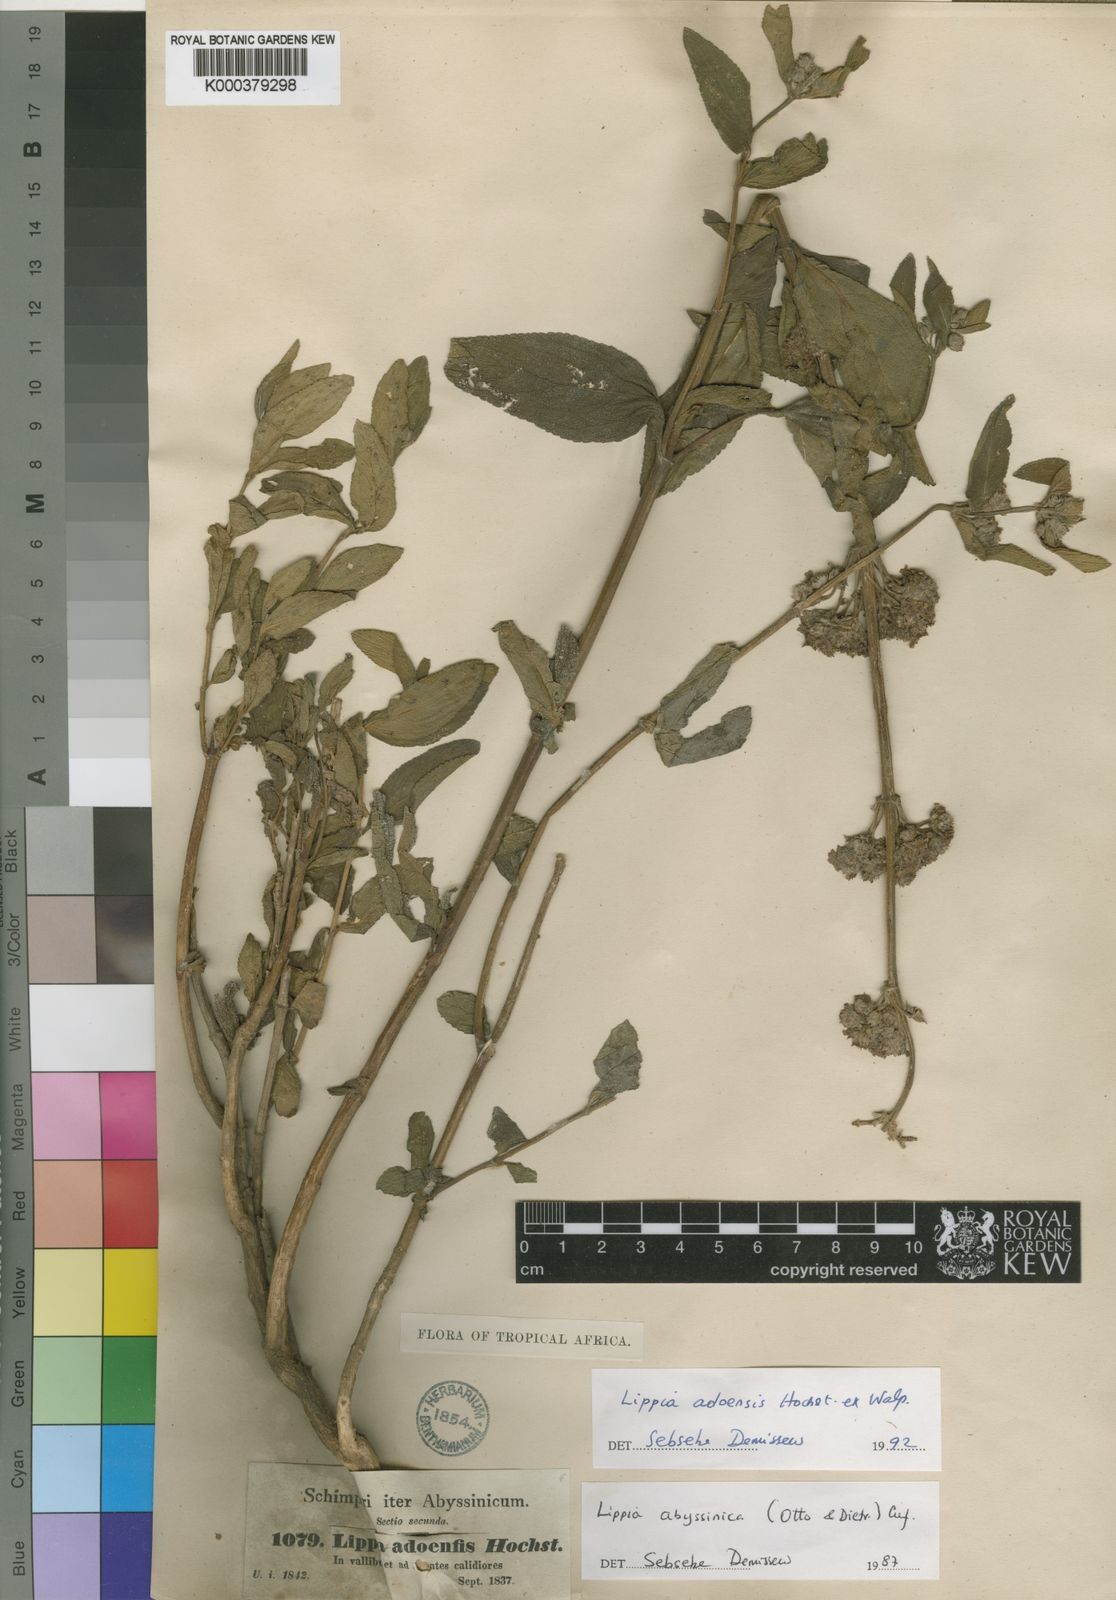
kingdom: Plantae
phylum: Tracheophyta
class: Magnoliopsida
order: Lamiales
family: Verbenaceae
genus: Lippia
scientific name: Lippia abyssinica
